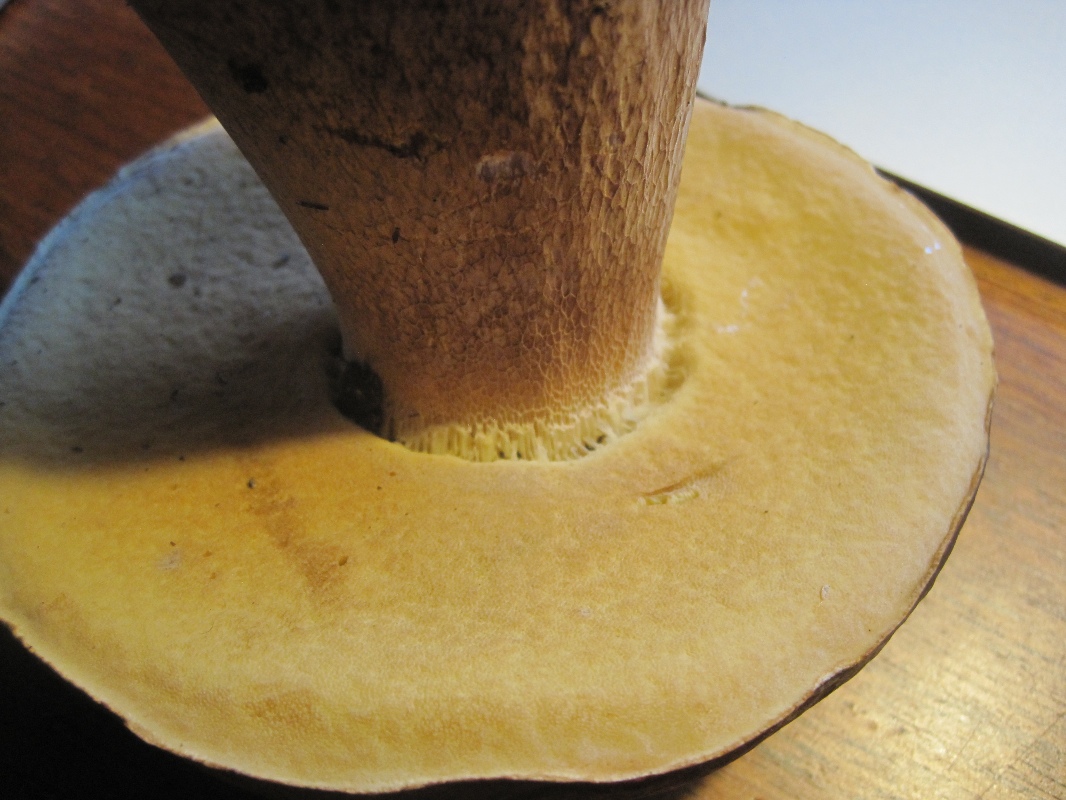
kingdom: Fungi
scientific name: Fungi
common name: bronze-rørhat
